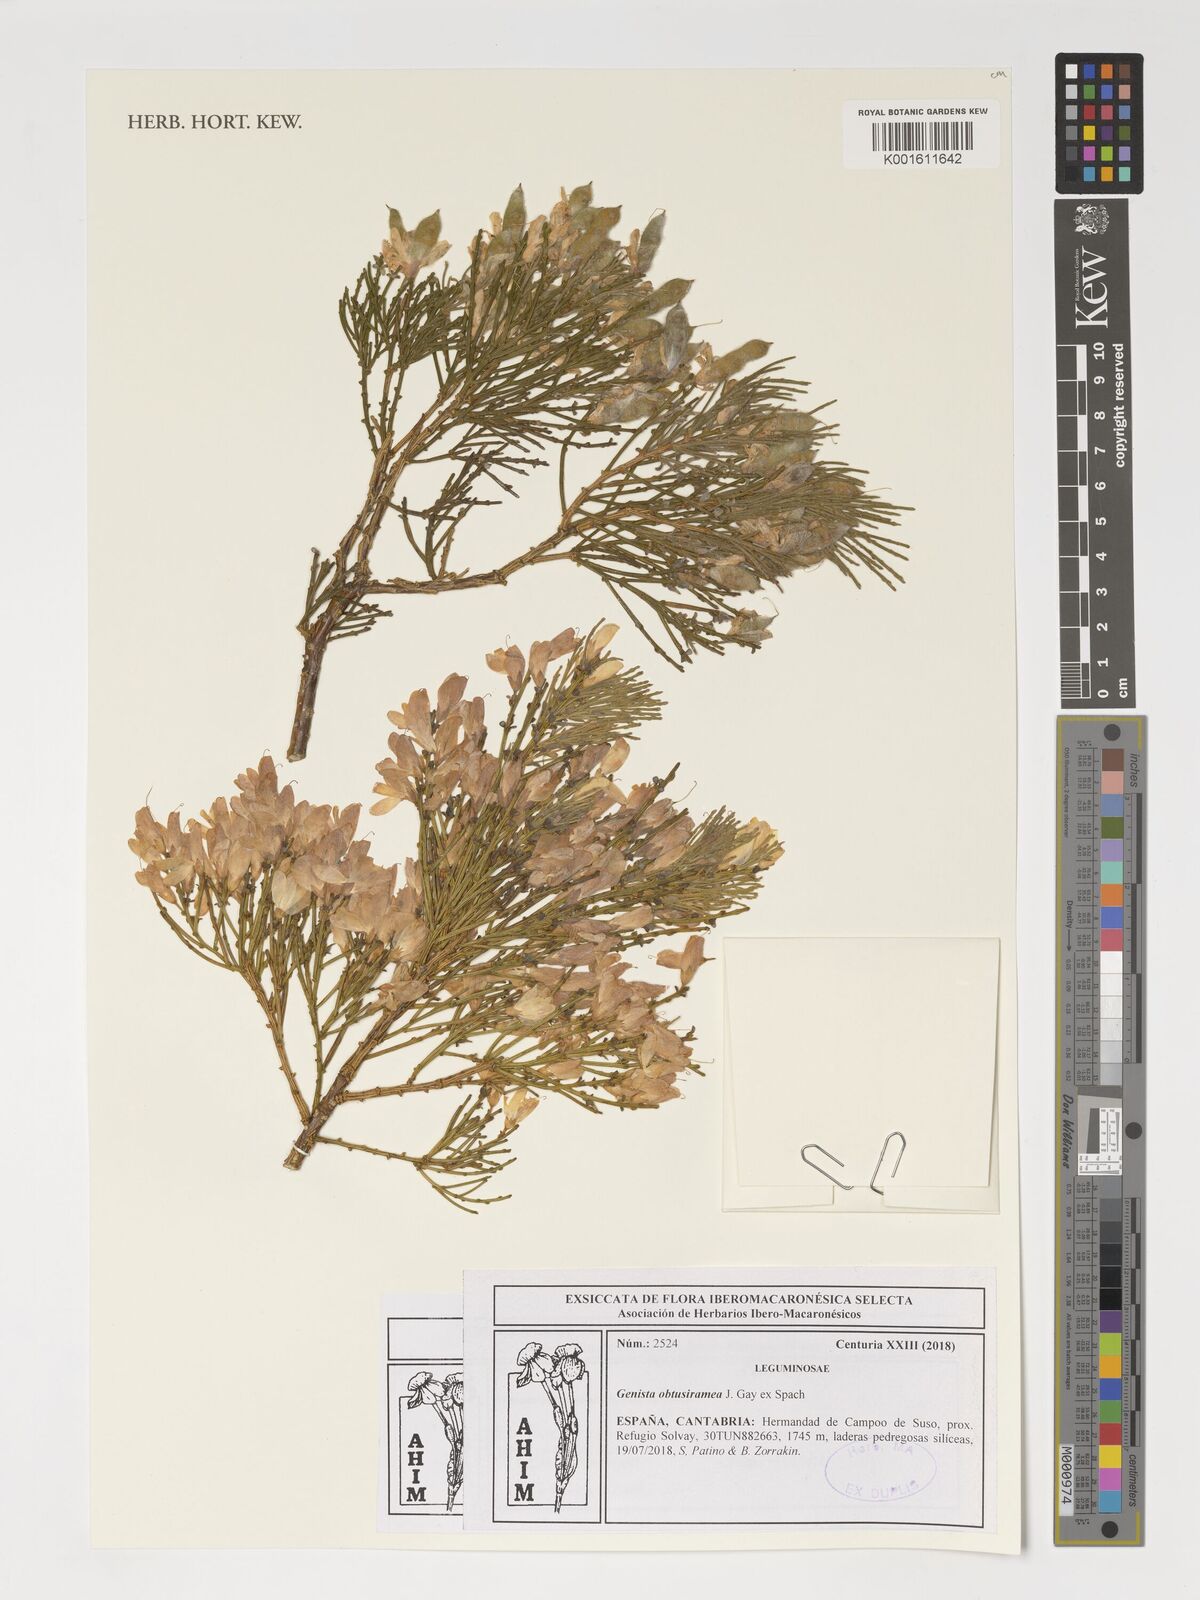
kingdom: Plantae
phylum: Tracheophyta
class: Magnoliopsida
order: Fabales
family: Fabaceae
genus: Genista
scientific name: Genista obtusiramea
